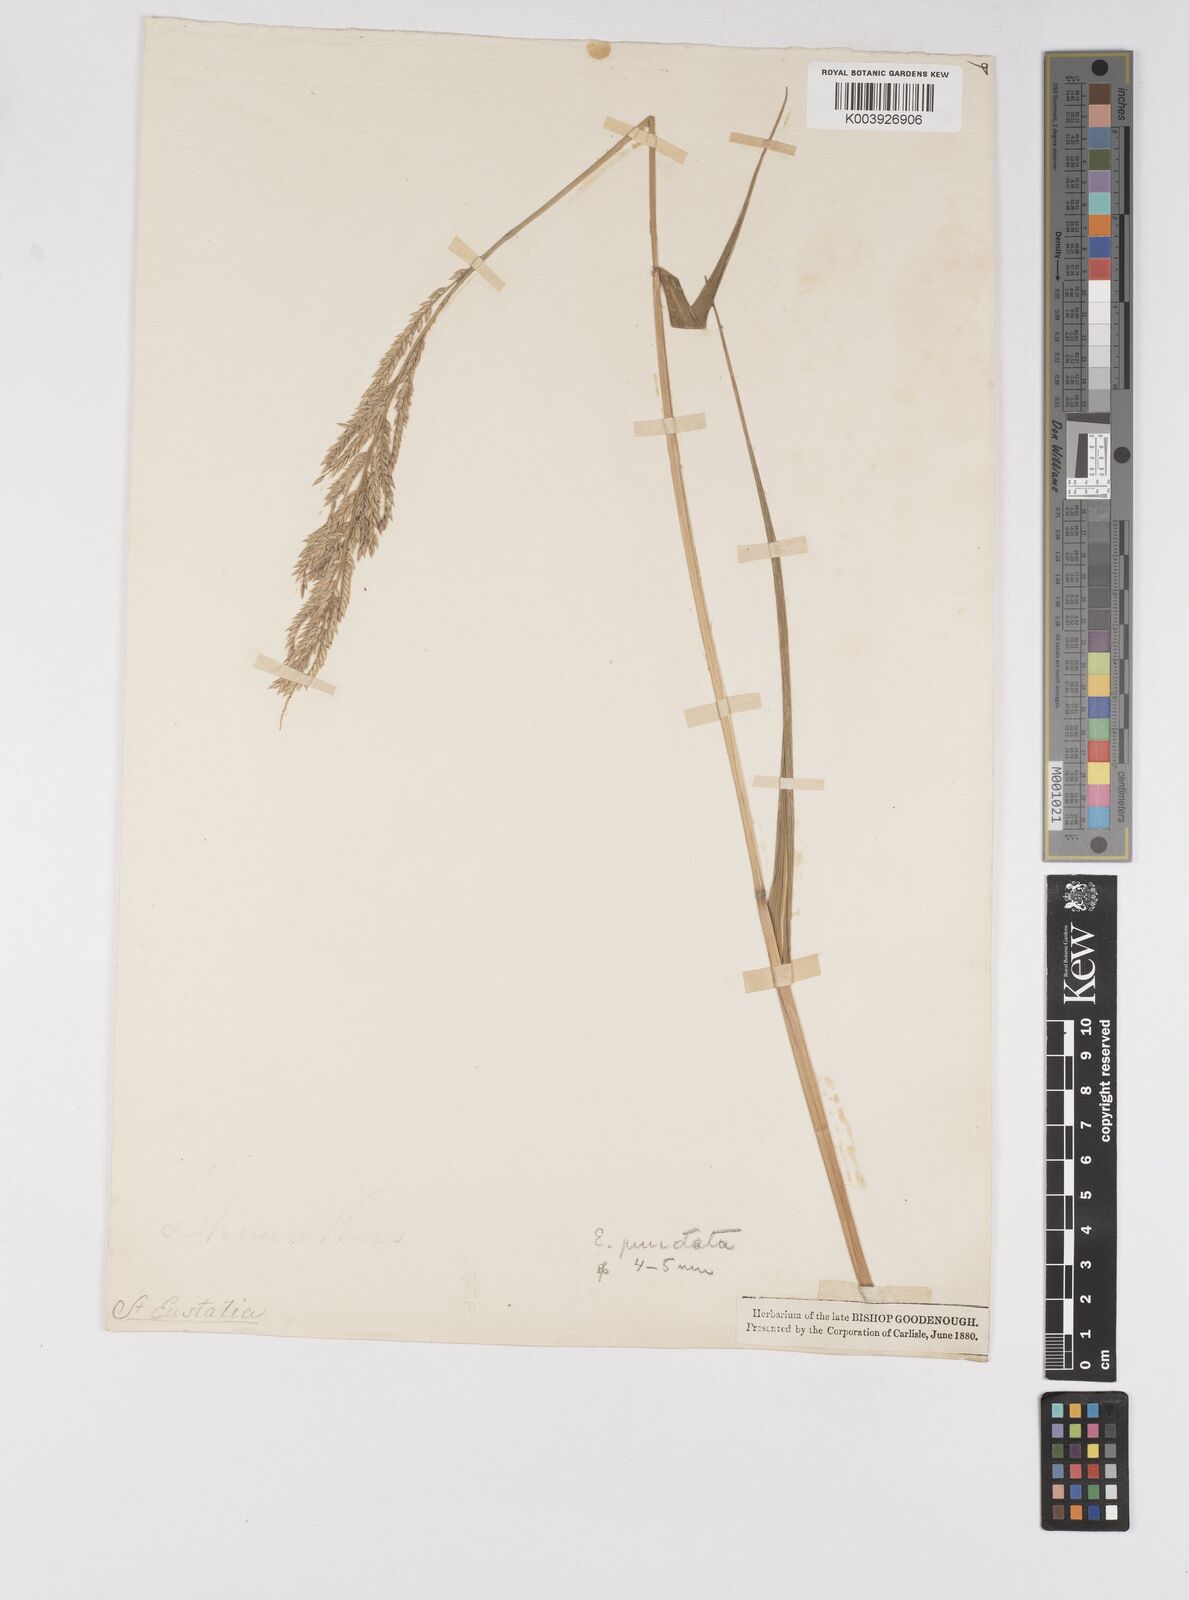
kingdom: Plantae
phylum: Tracheophyta
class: Liliopsida
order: Poales
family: Poaceae
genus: Eriochloa
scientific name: Eriochloa punctata
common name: Louisiana cupgrass
